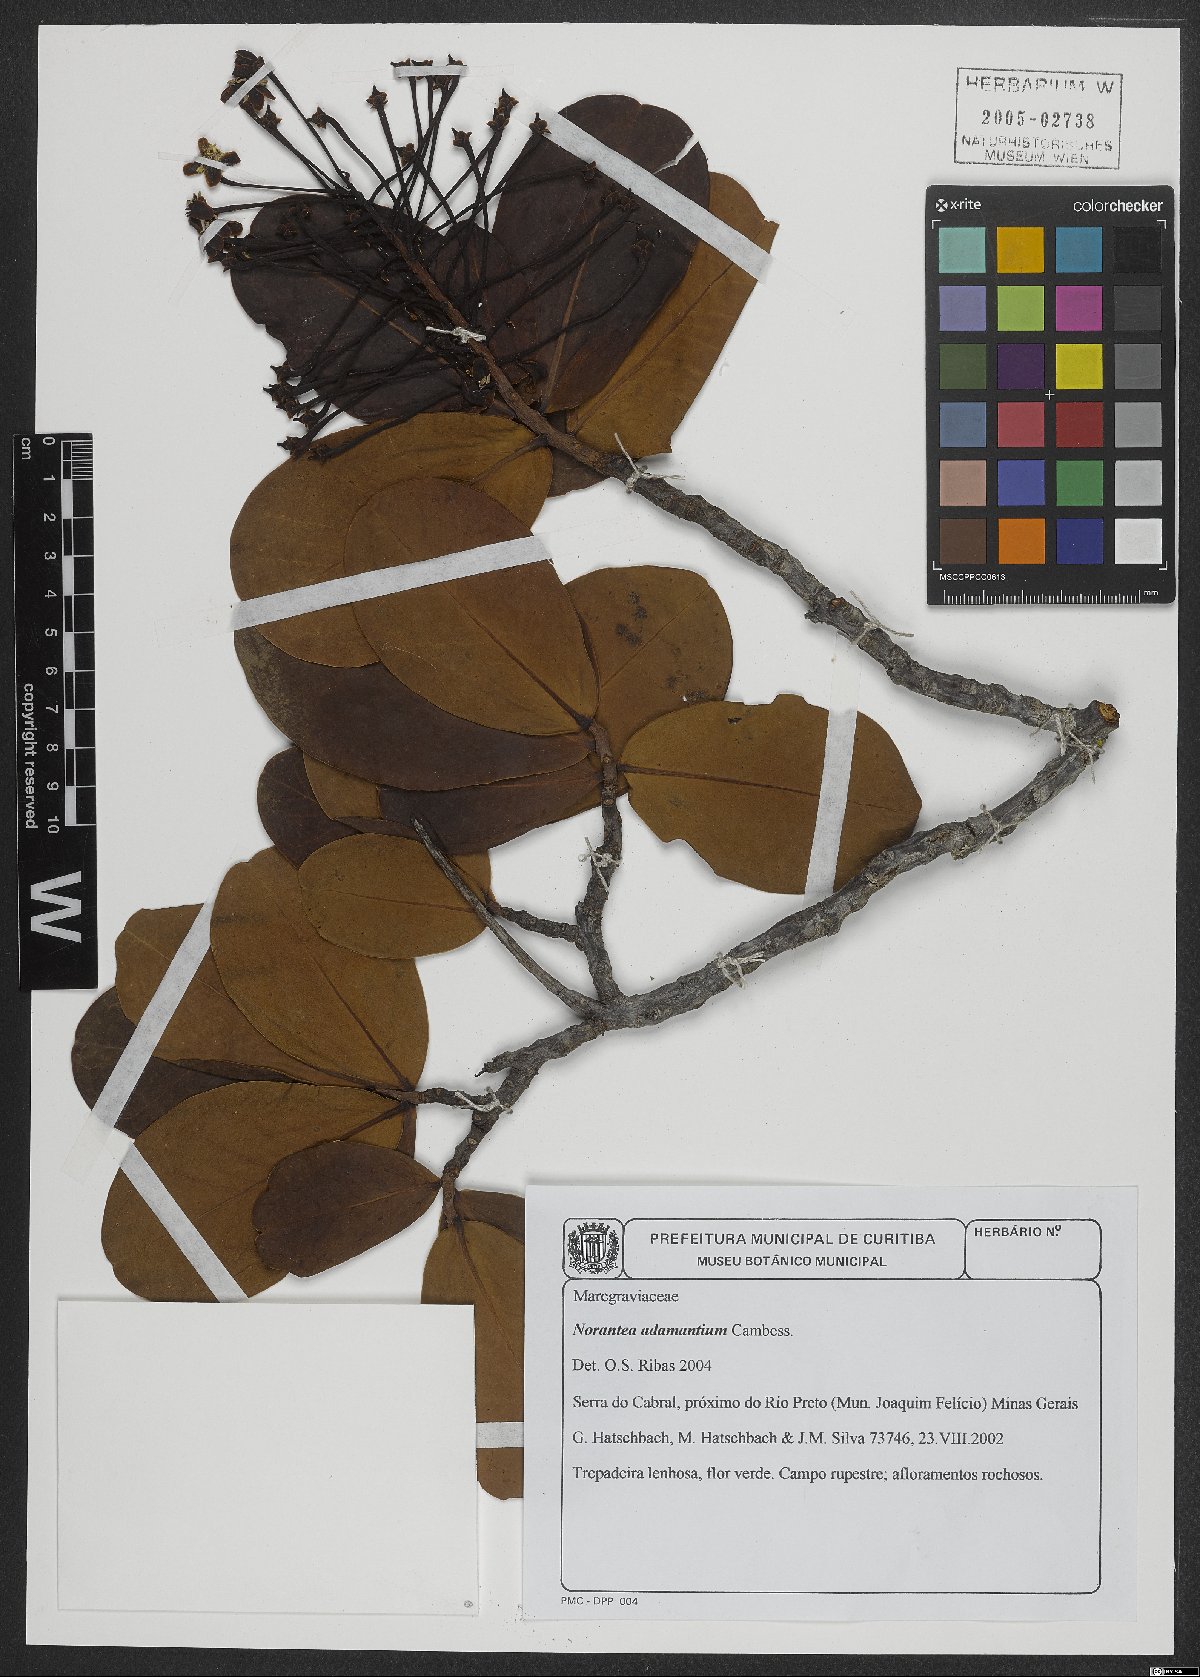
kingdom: Plantae
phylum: Tracheophyta
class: Magnoliopsida
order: Ericales
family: Marcgraviaceae
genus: Schwartzia
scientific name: Schwartzia adamantium
